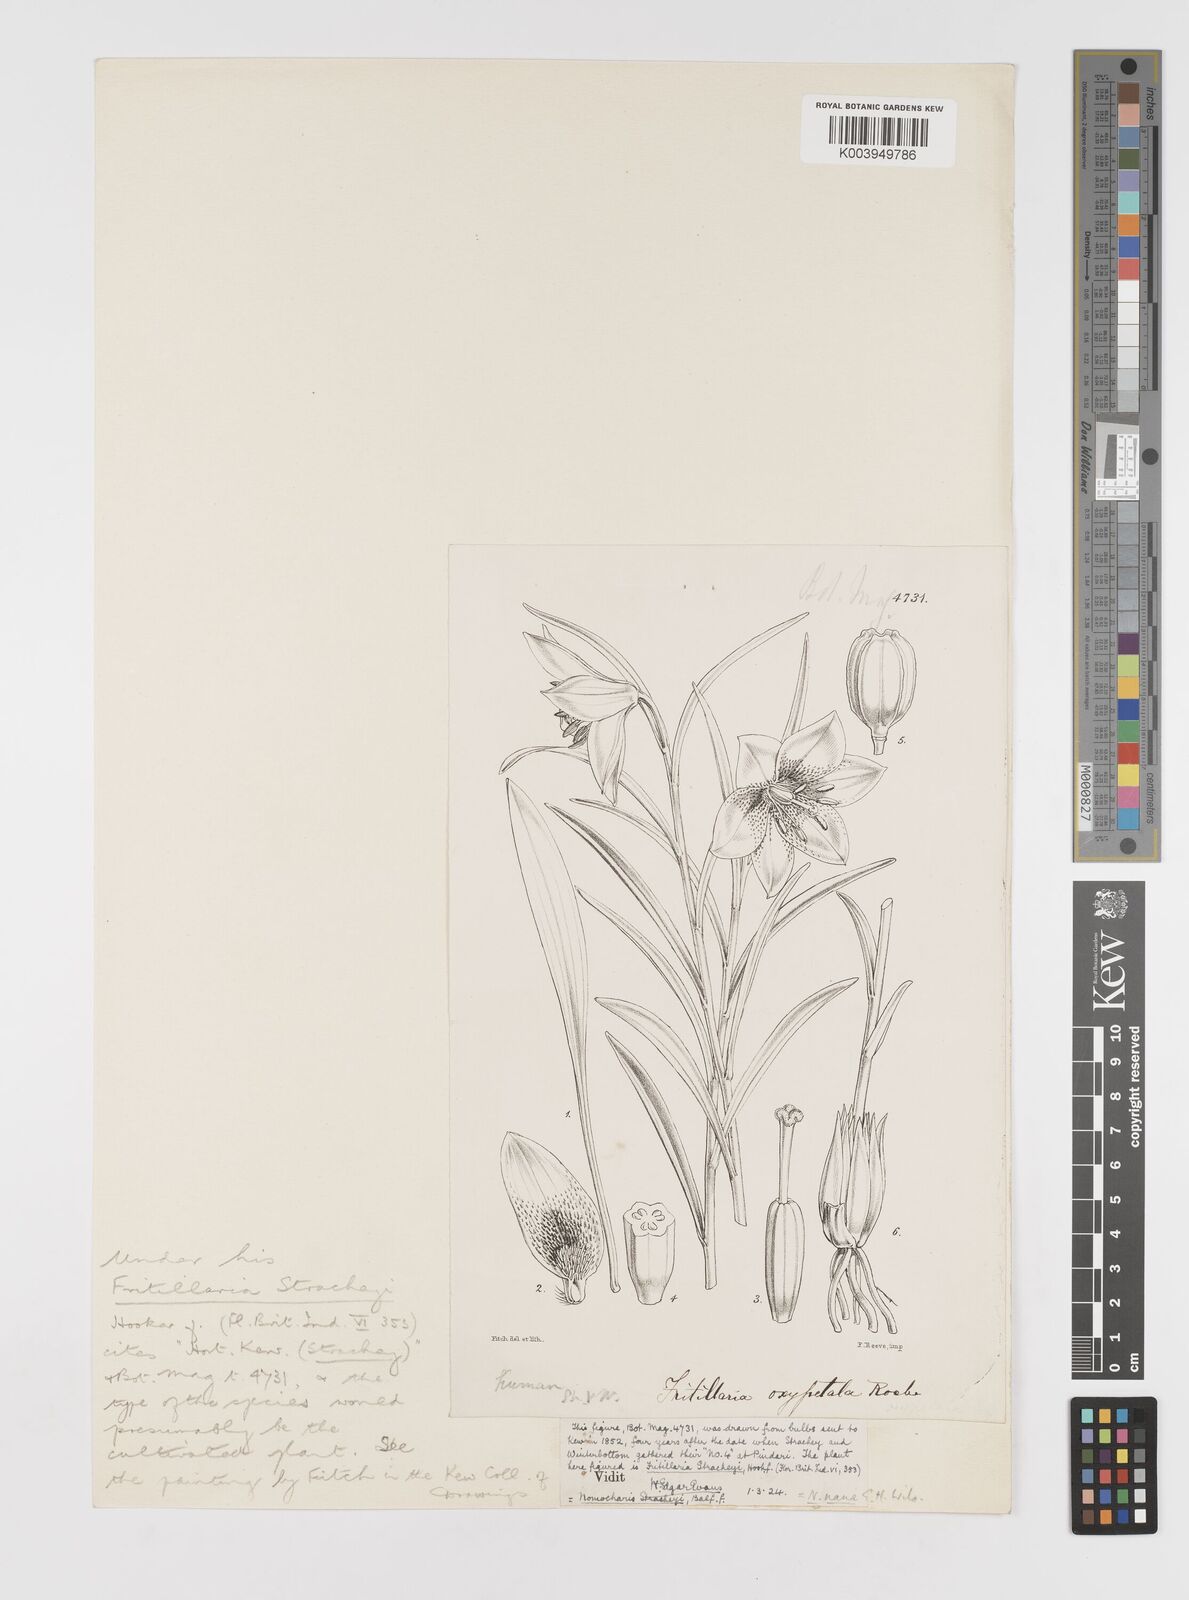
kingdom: Plantae
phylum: Tracheophyta
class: Liliopsida
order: Liliales
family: Liliaceae
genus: Lilium
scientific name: Lilium nanum
